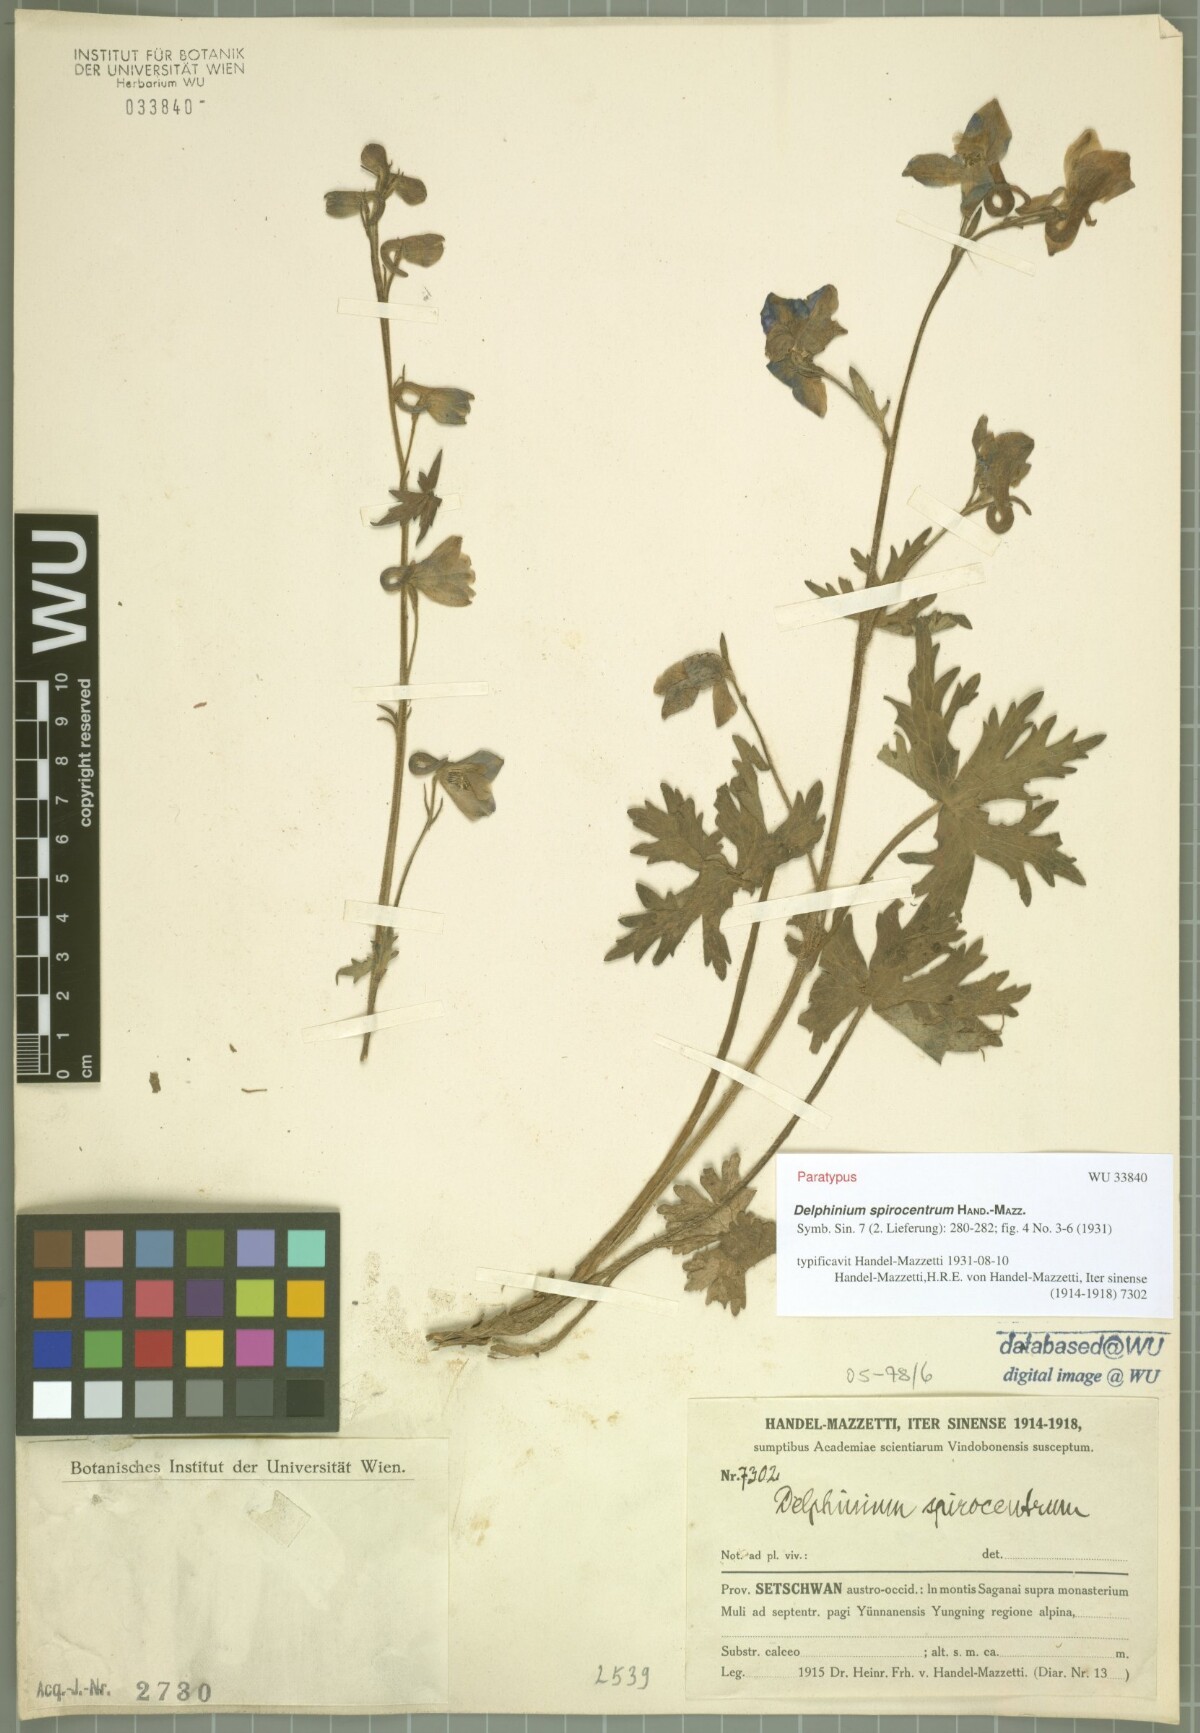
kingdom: Plantae
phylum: Tracheophyta
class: Magnoliopsida
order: Ranunculales
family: Ranunculaceae
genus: Delphinium
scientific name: Delphinium spirocentrum
